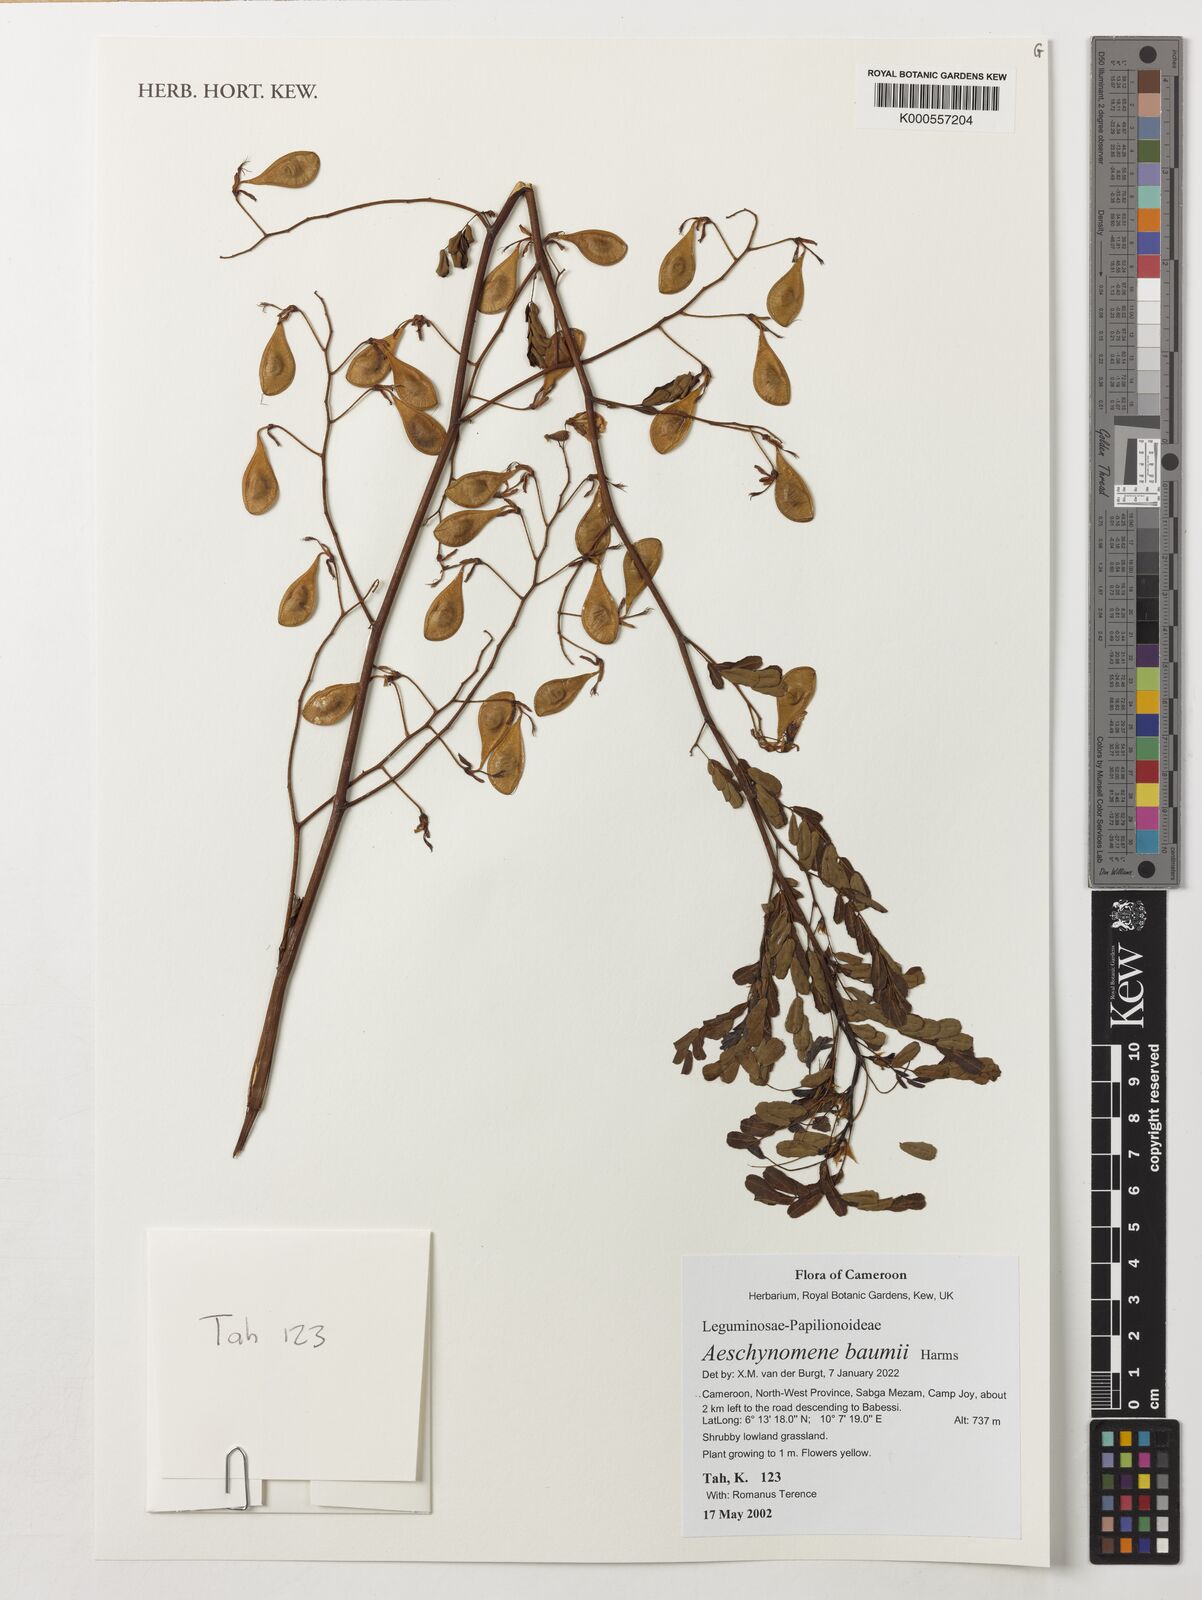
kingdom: Plantae
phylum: Tracheophyta
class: Magnoliopsida
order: Fabales
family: Fabaceae
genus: Aeschynomene
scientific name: Aeschynomene baumii
